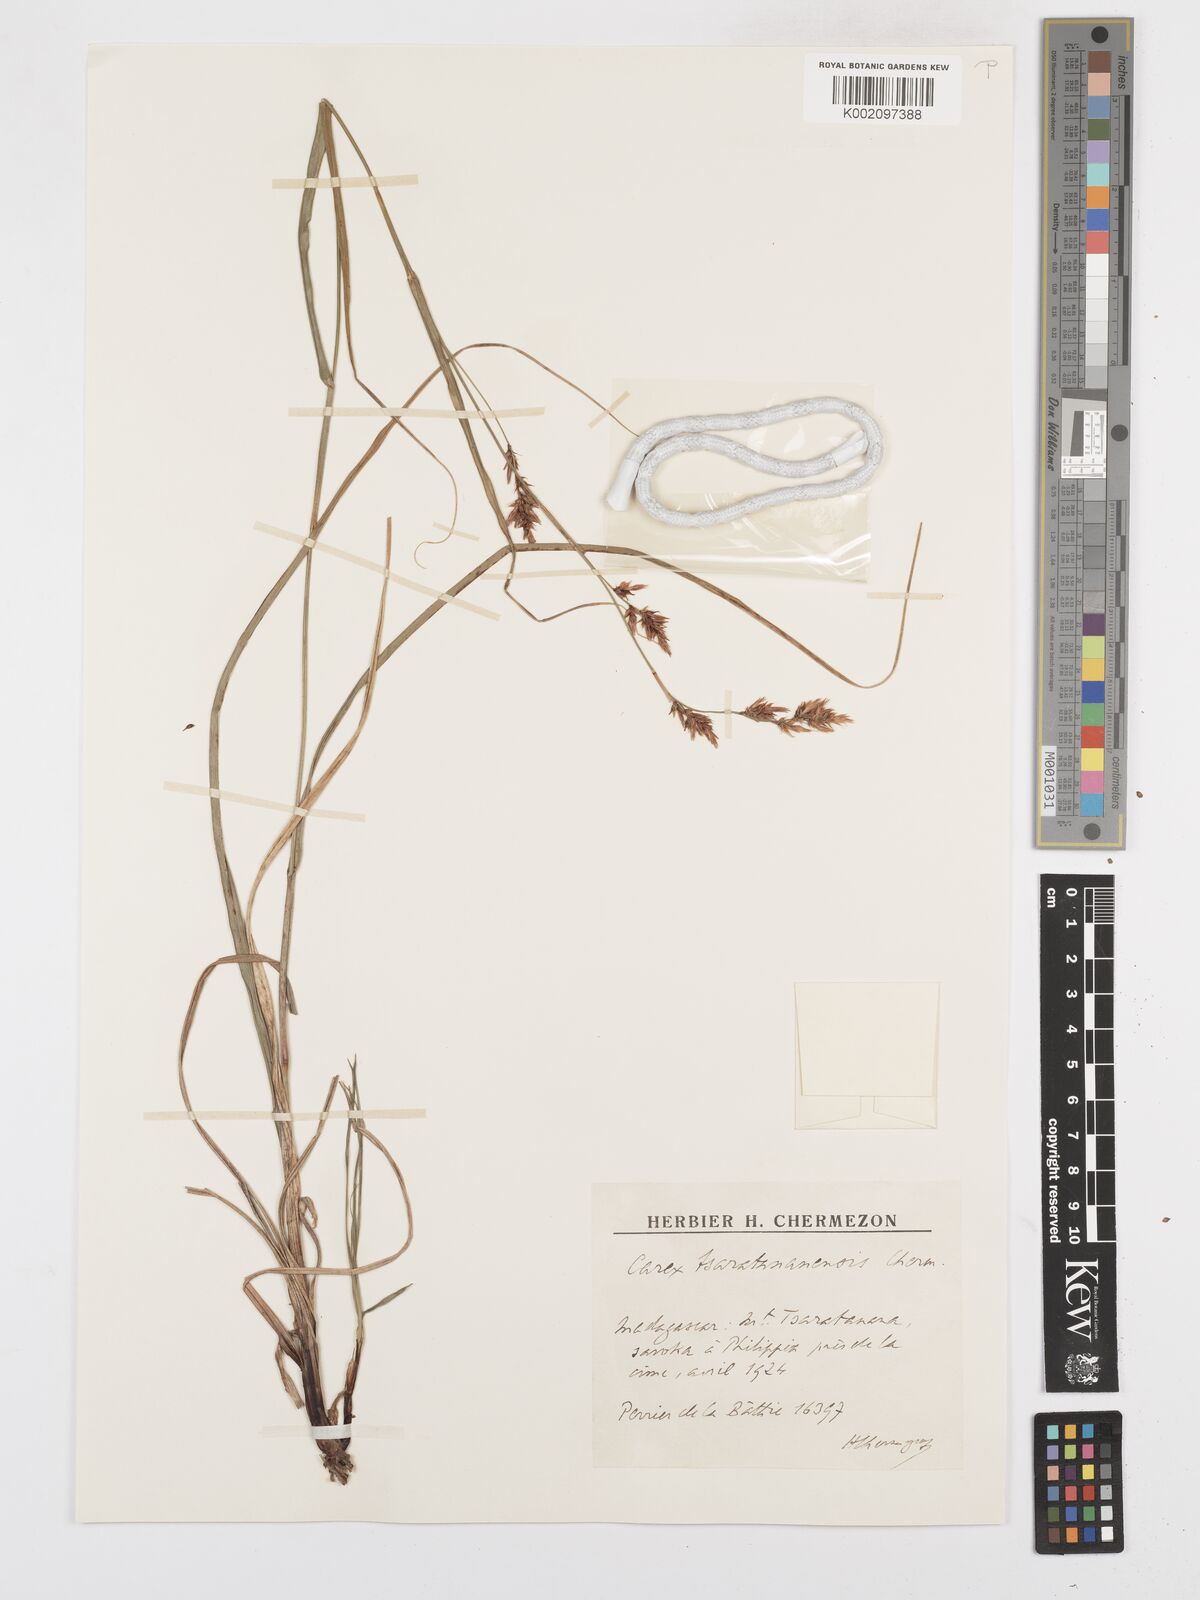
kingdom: Plantae
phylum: Tracheophyta
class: Liliopsida
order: Poales
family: Cyperaceae
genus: Carex
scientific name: Carex tsaratananensis
